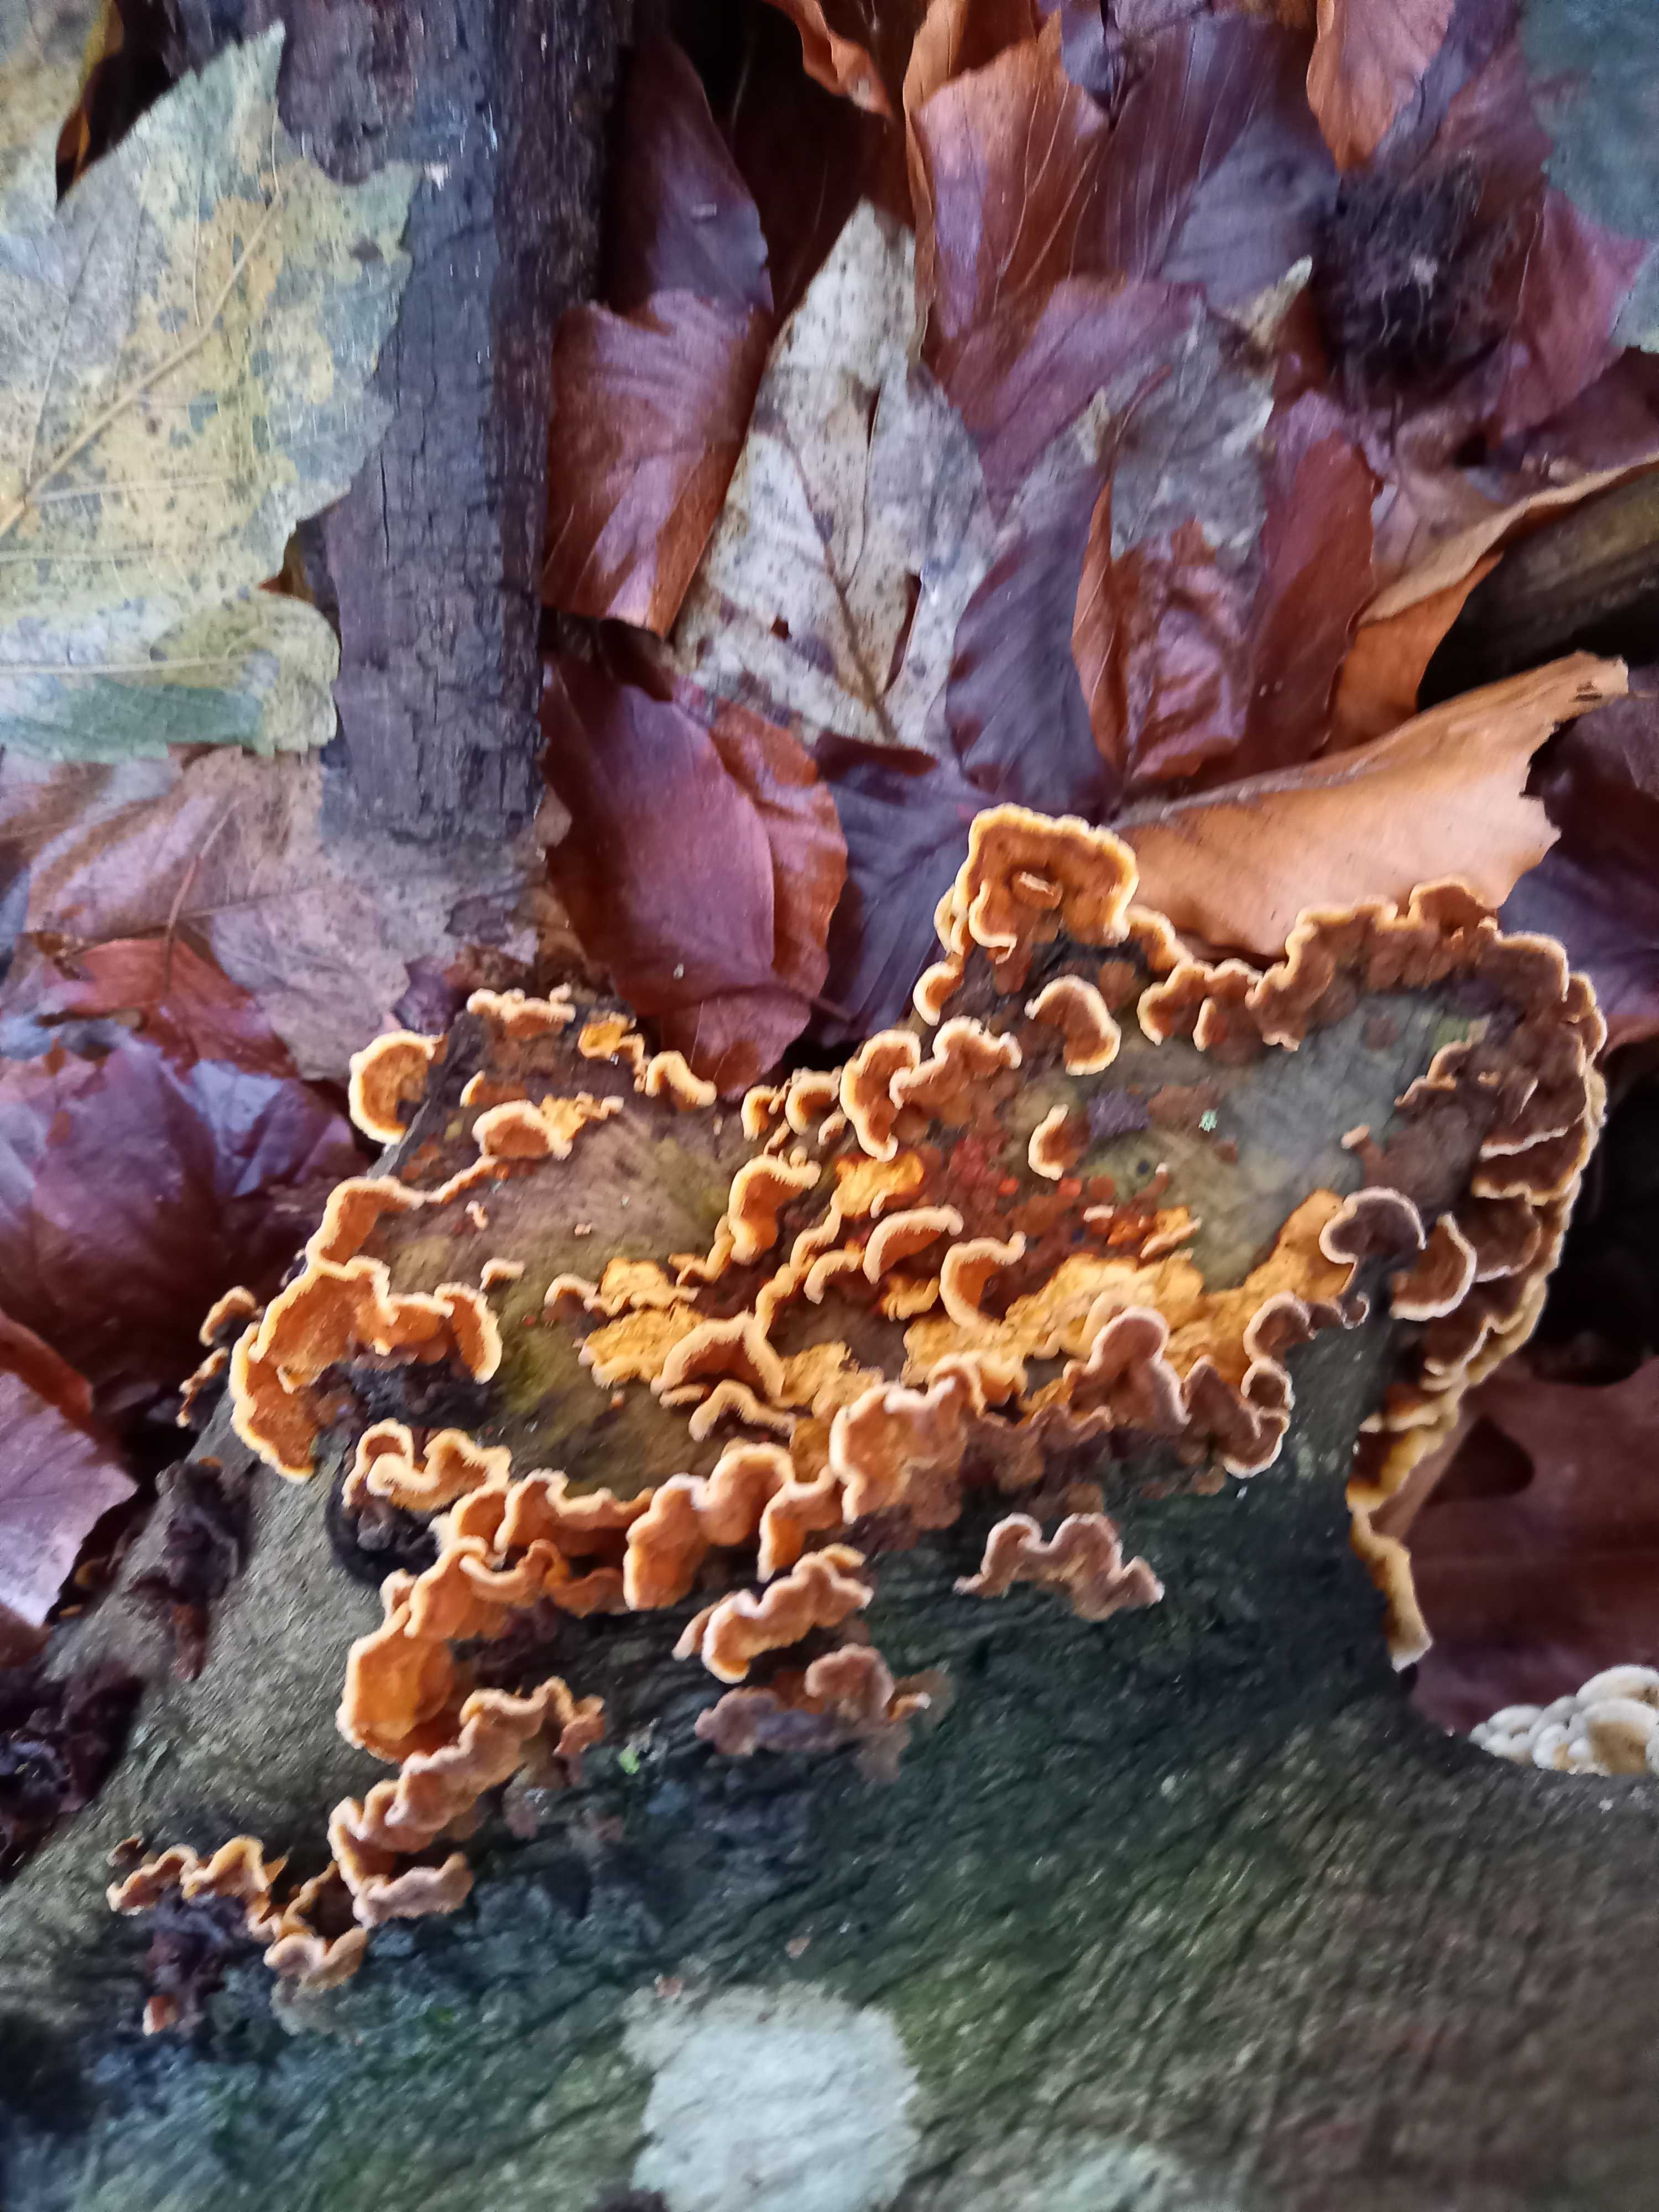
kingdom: Fungi
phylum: Basidiomycota
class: Agaricomycetes
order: Russulales
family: Stereaceae
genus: Stereum
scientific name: Stereum subtomentosum
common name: smuk lædersvamp
